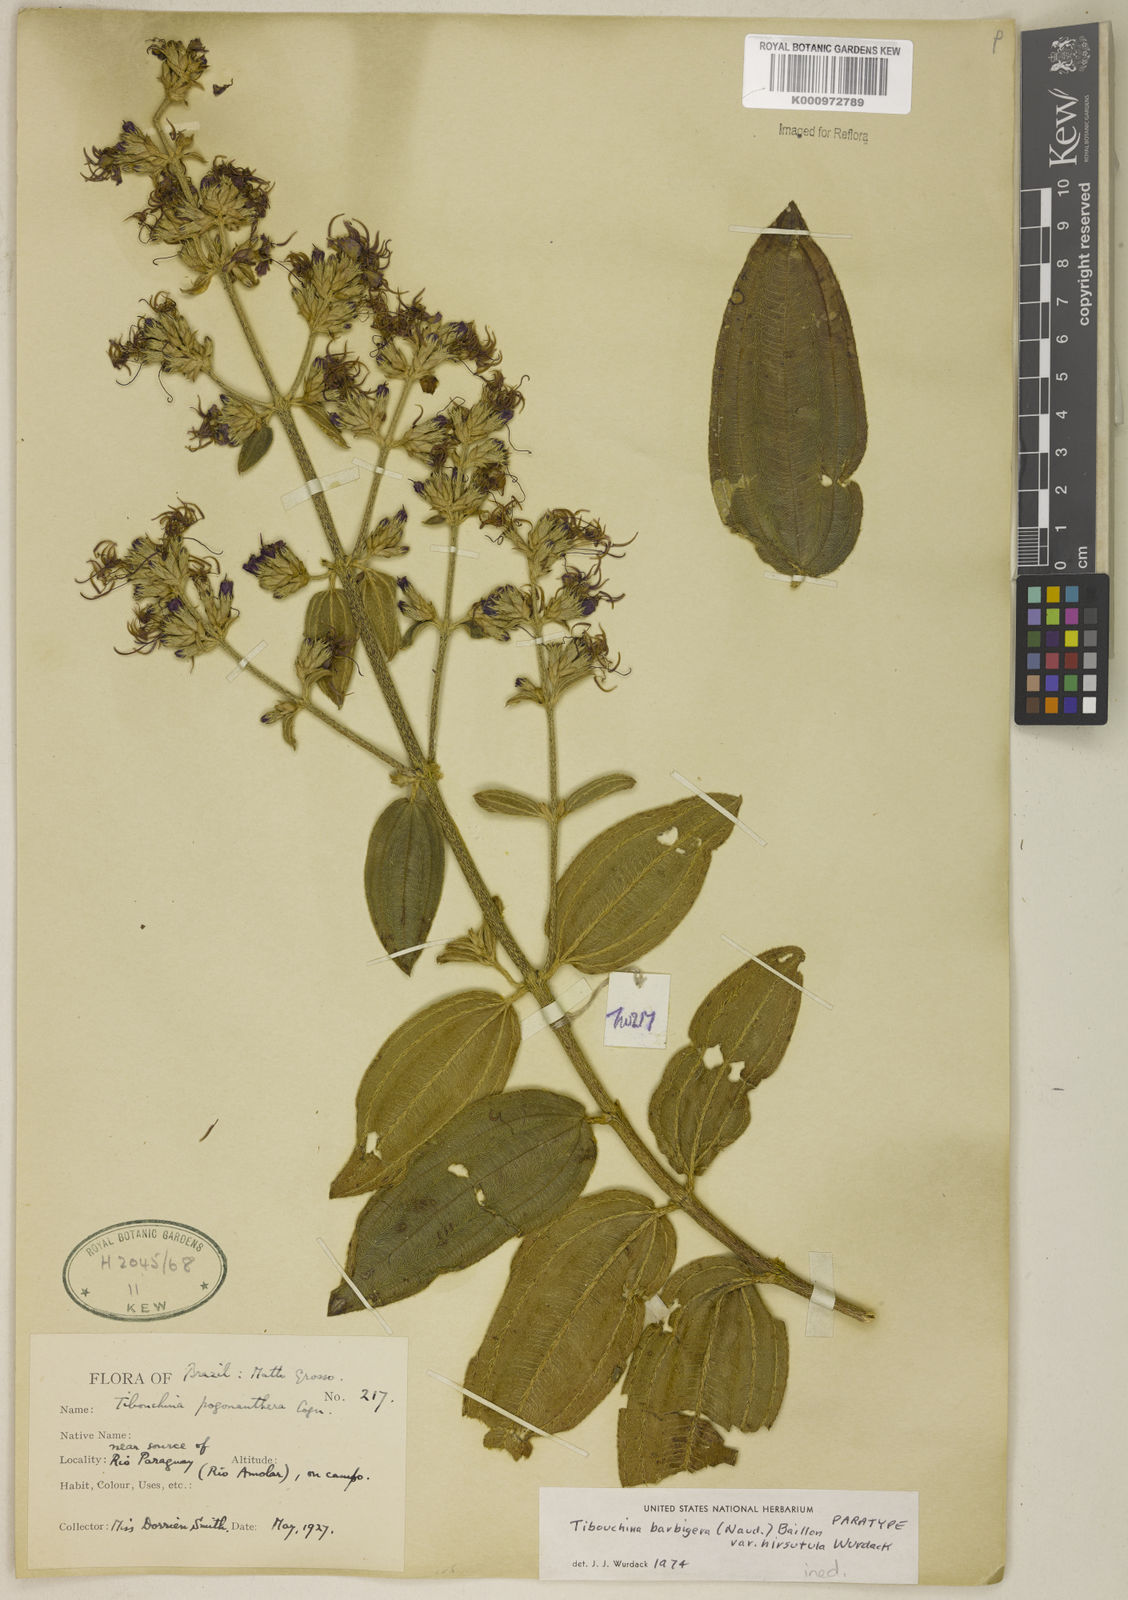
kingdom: Plantae
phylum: Tracheophyta
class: Magnoliopsida
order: Myrtales
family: Melastomataceae
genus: Pleroma
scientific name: Pleroma barbigerum
